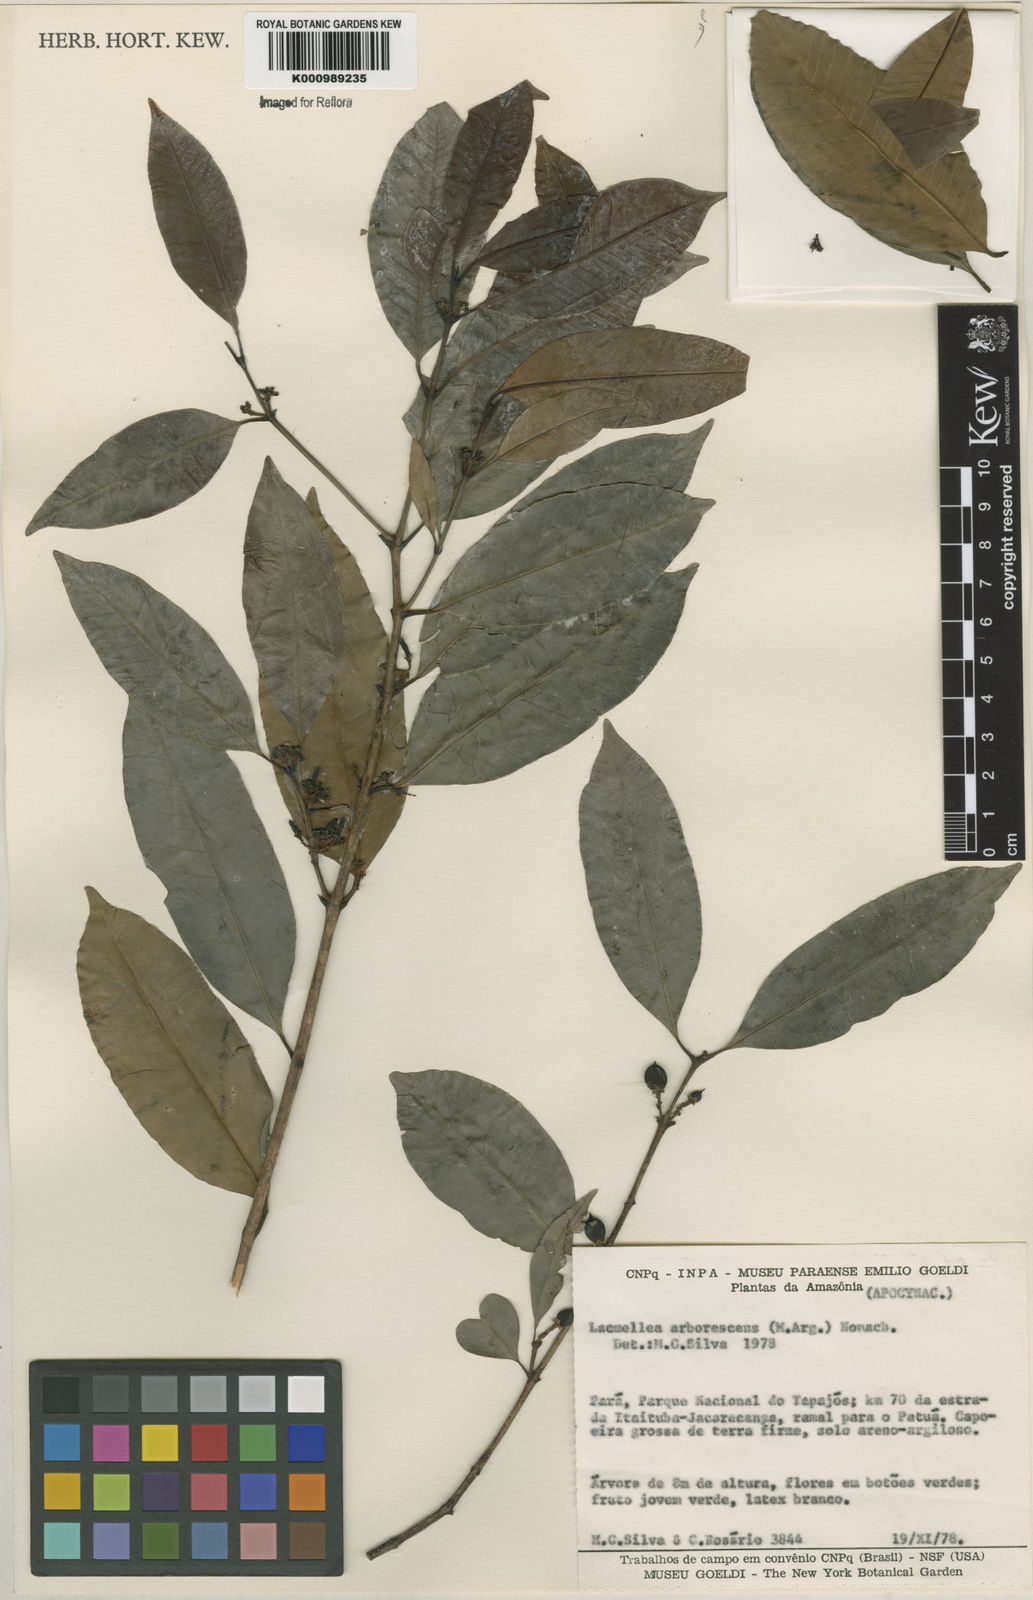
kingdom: Plantae
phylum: Tracheophyta
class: Magnoliopsida
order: Gentianales
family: Apocynaceae
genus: Lacmellea
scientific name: Lacmellea
